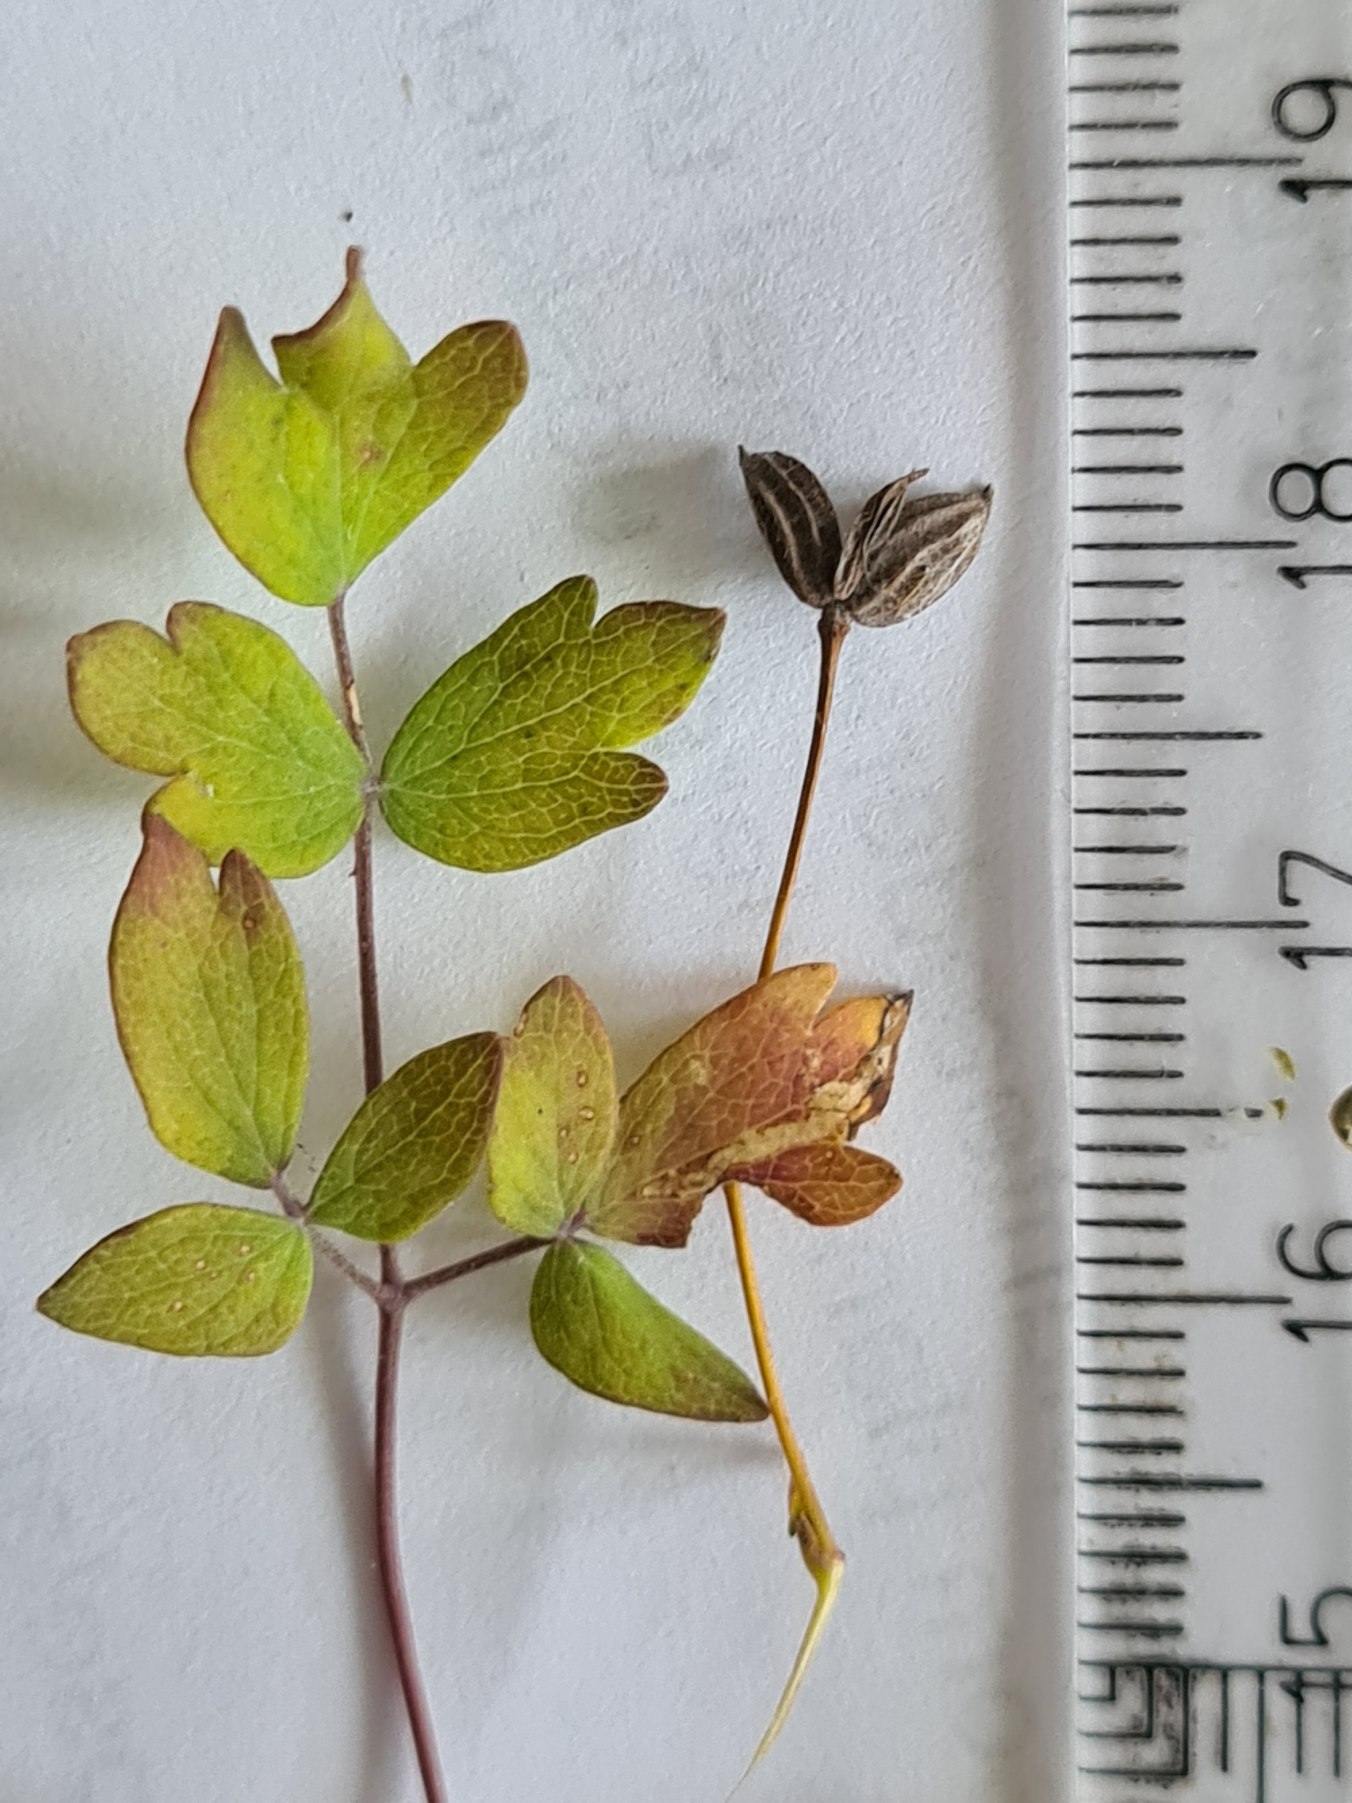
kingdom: Plantae
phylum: Tracheophyta
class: Magnoliopsida
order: Ranunculales
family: Ranunculaceae
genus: Thalictrum
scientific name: Thalictrum minus
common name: Liden frøstjerne
